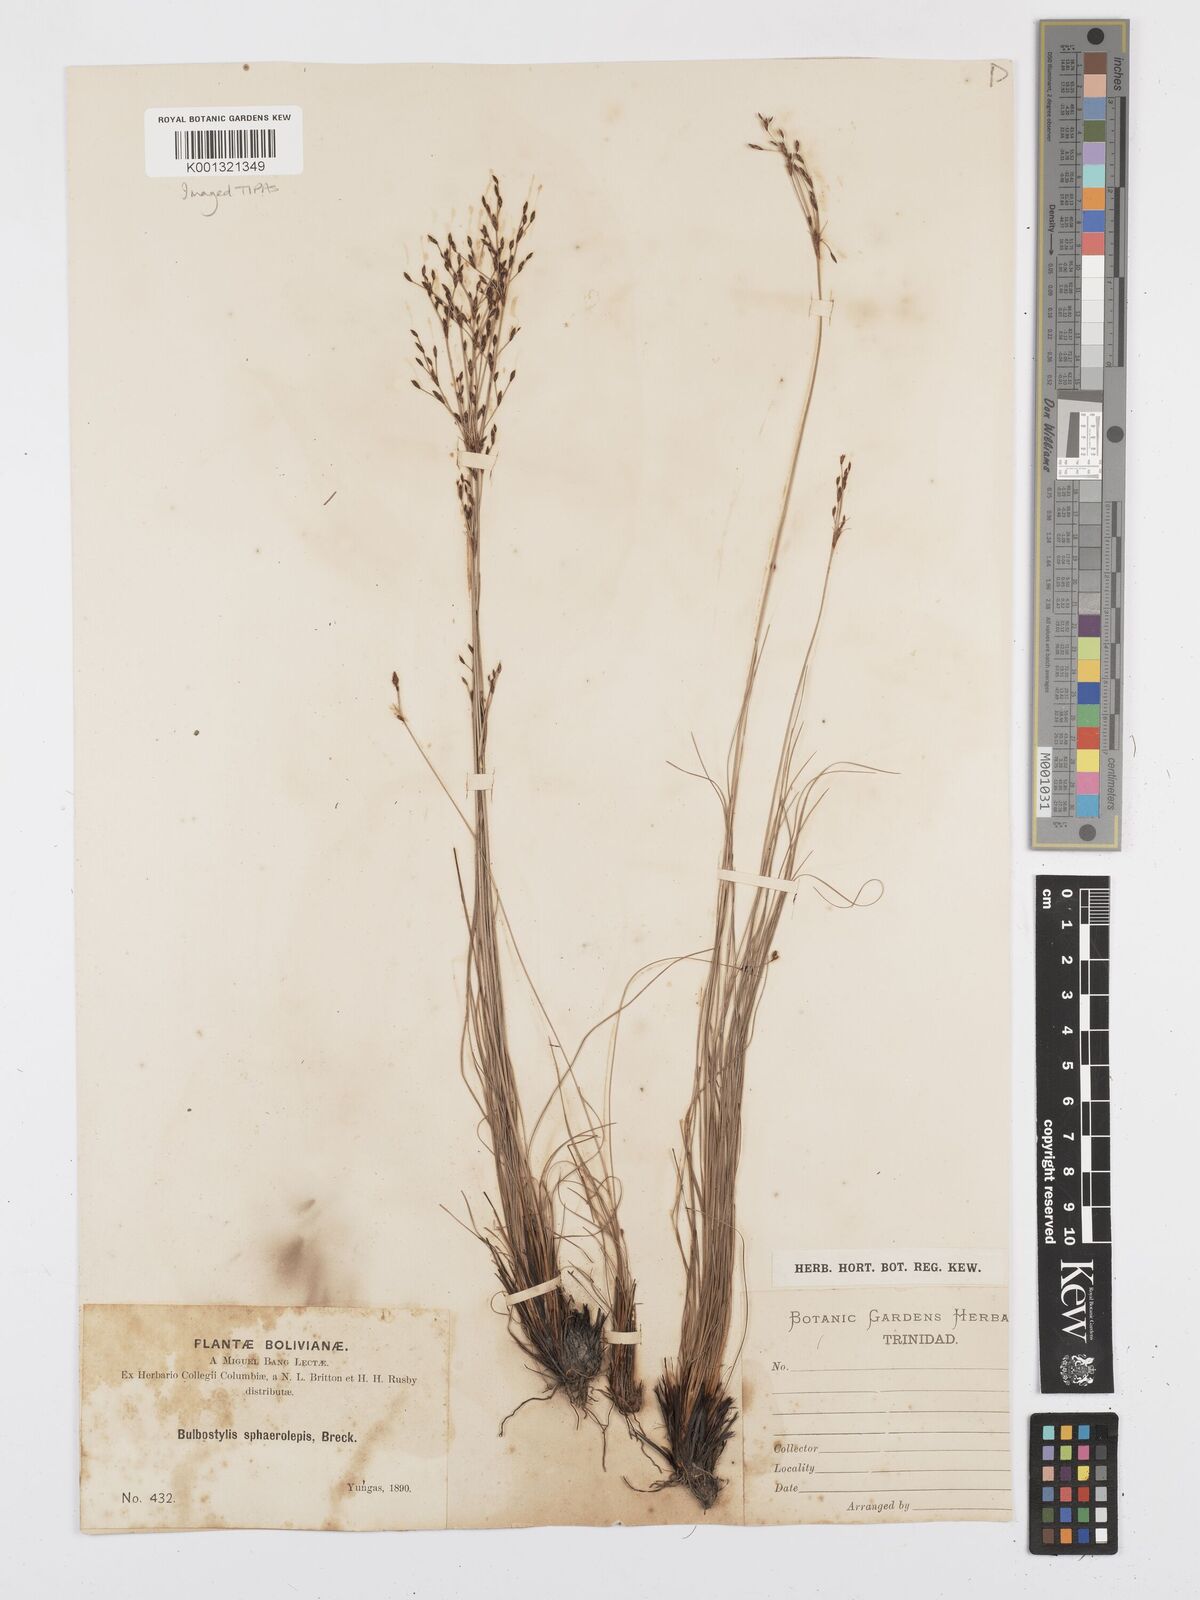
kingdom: Plantae
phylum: Tracheophyta
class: Liliopsida
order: Poales
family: Cyperaceae
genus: Bulbostylis
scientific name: Bulbostylis scabra
